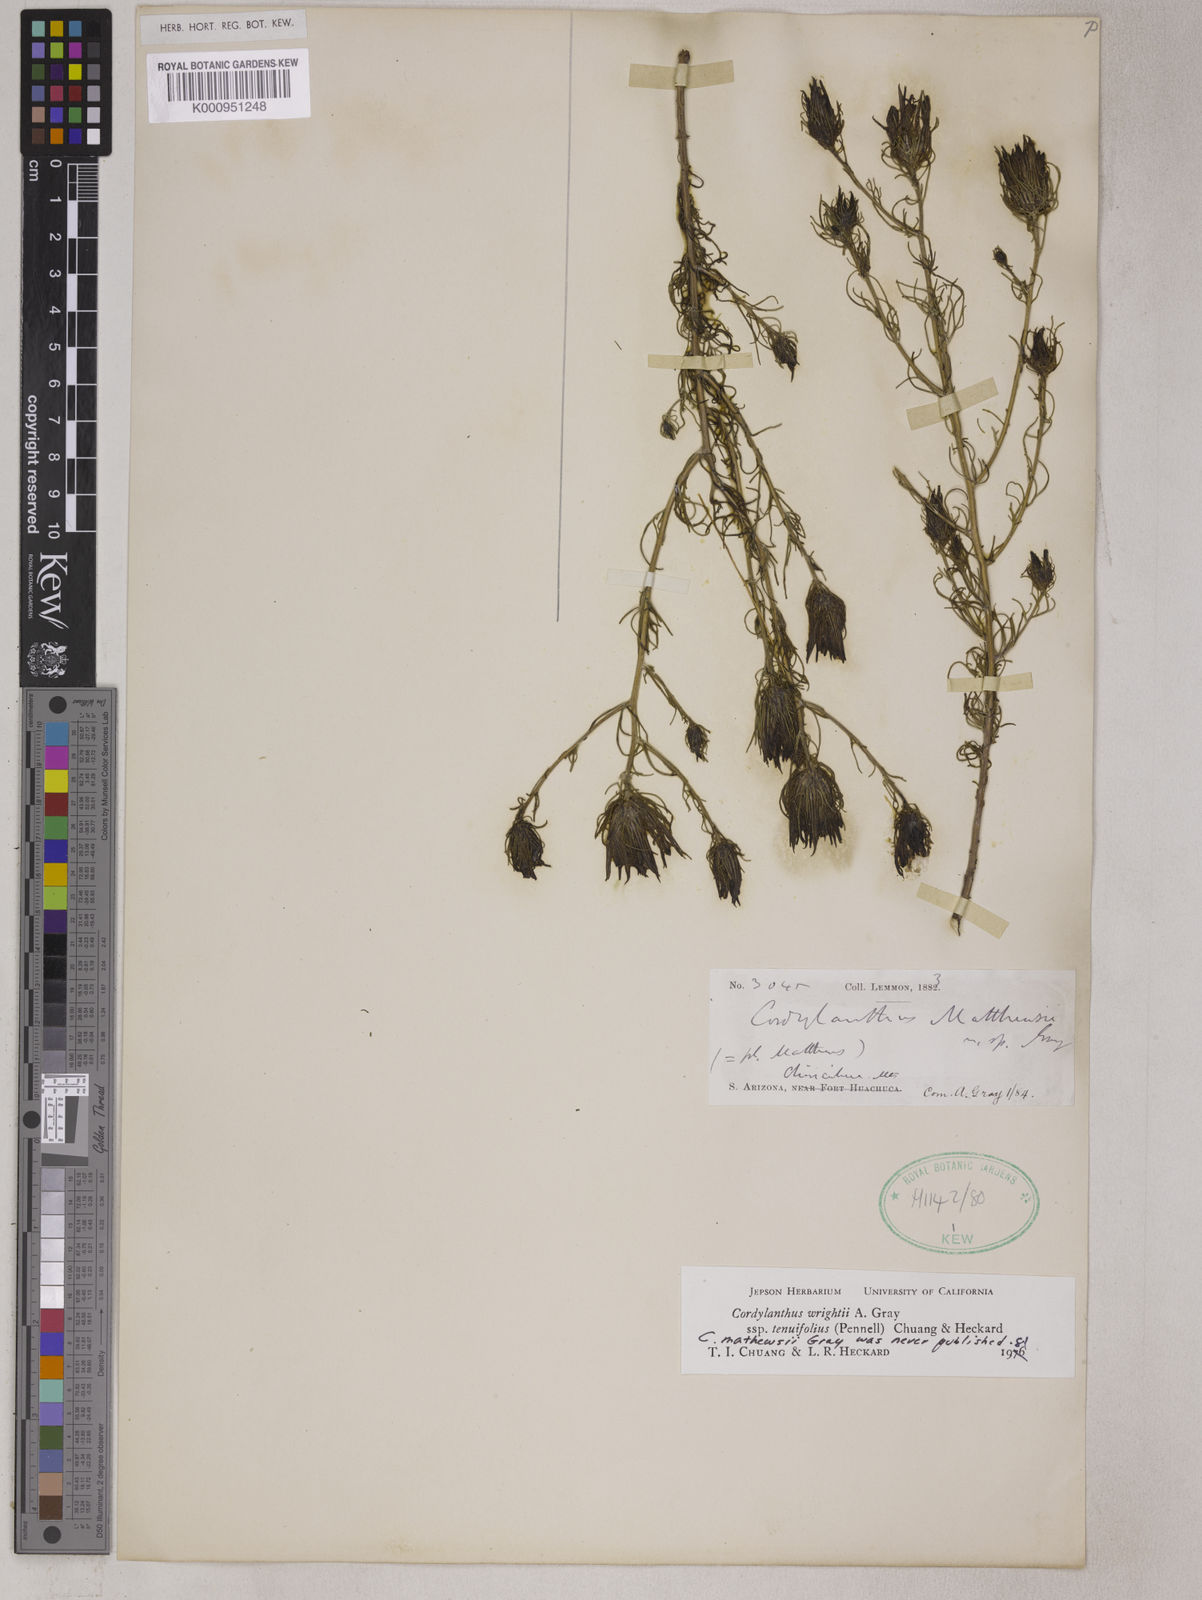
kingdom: Plantae
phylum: Tracheophyta
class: Magnoliopsida
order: Lamiales
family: Orobanchaceae
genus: Cordylanthus
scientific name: Cordylanthus wrightii
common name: Wright's birdsbeak
